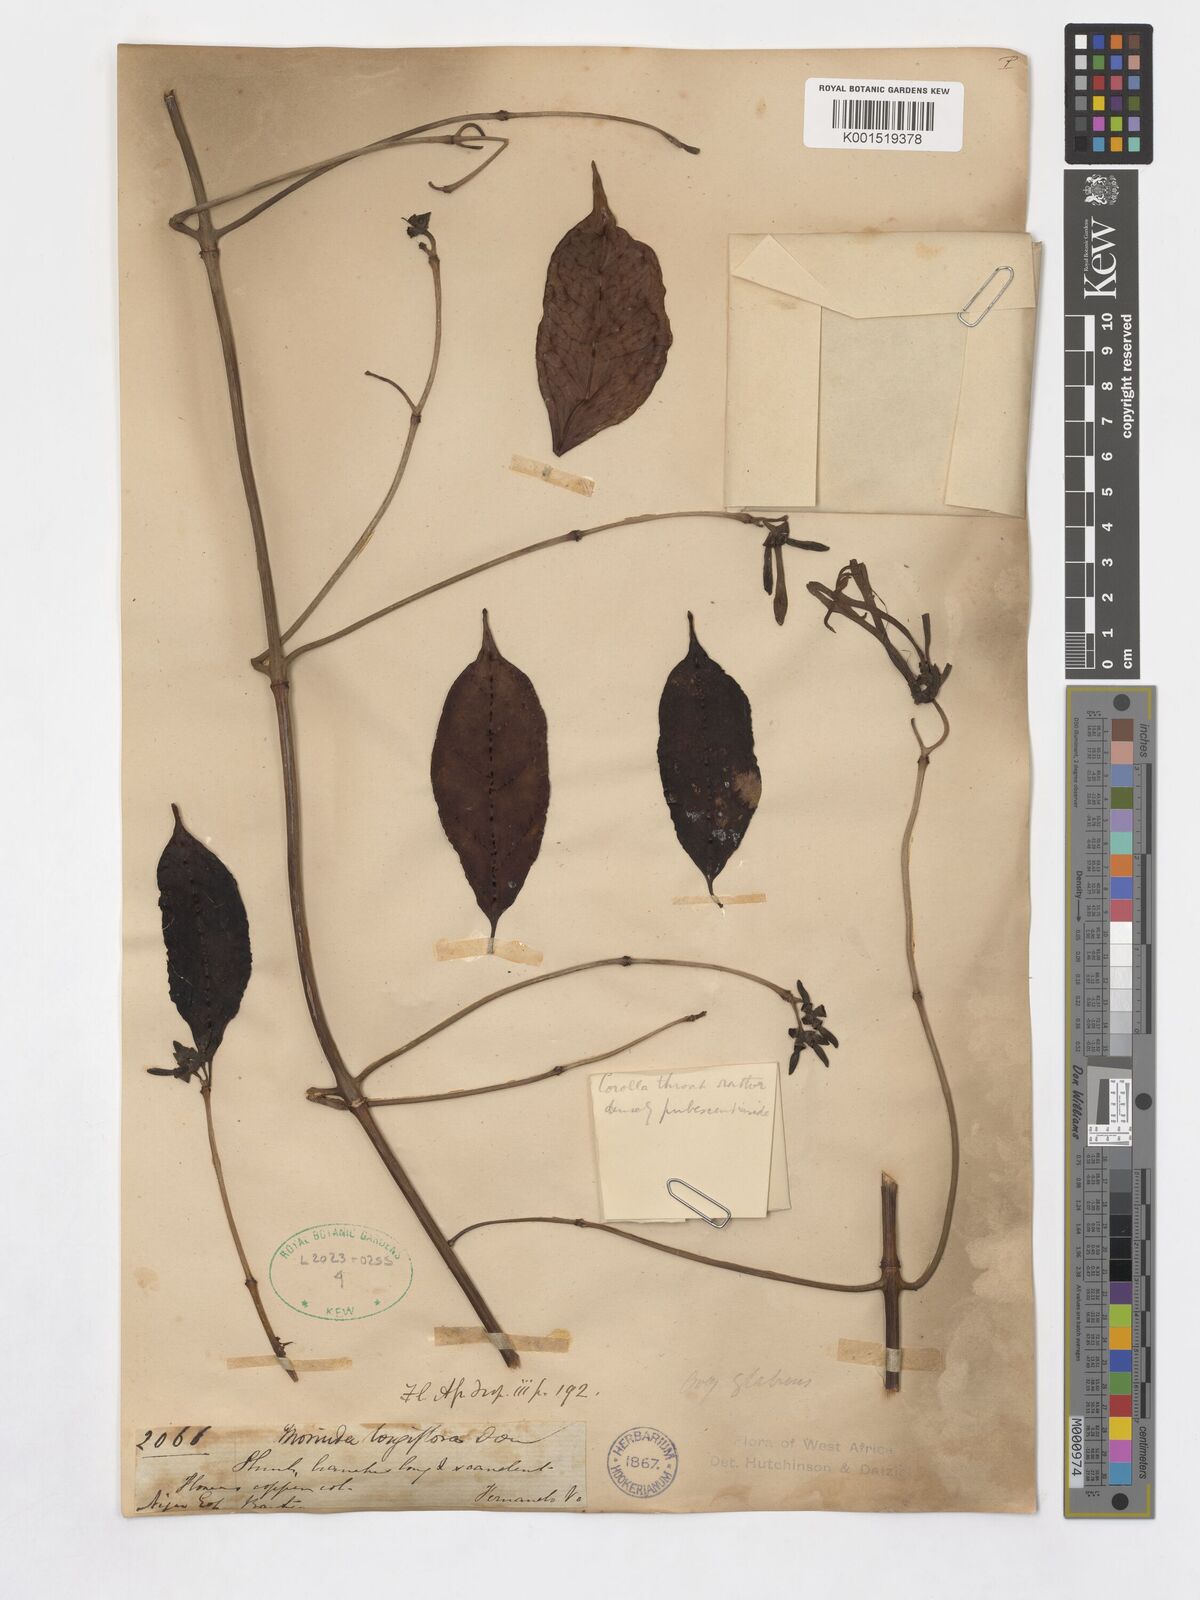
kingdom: Plantae
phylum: Tracheophyta
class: Magnoliopsida
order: Gentianales
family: Rubiaceae
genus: Morinda
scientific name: Morinda longiflora
